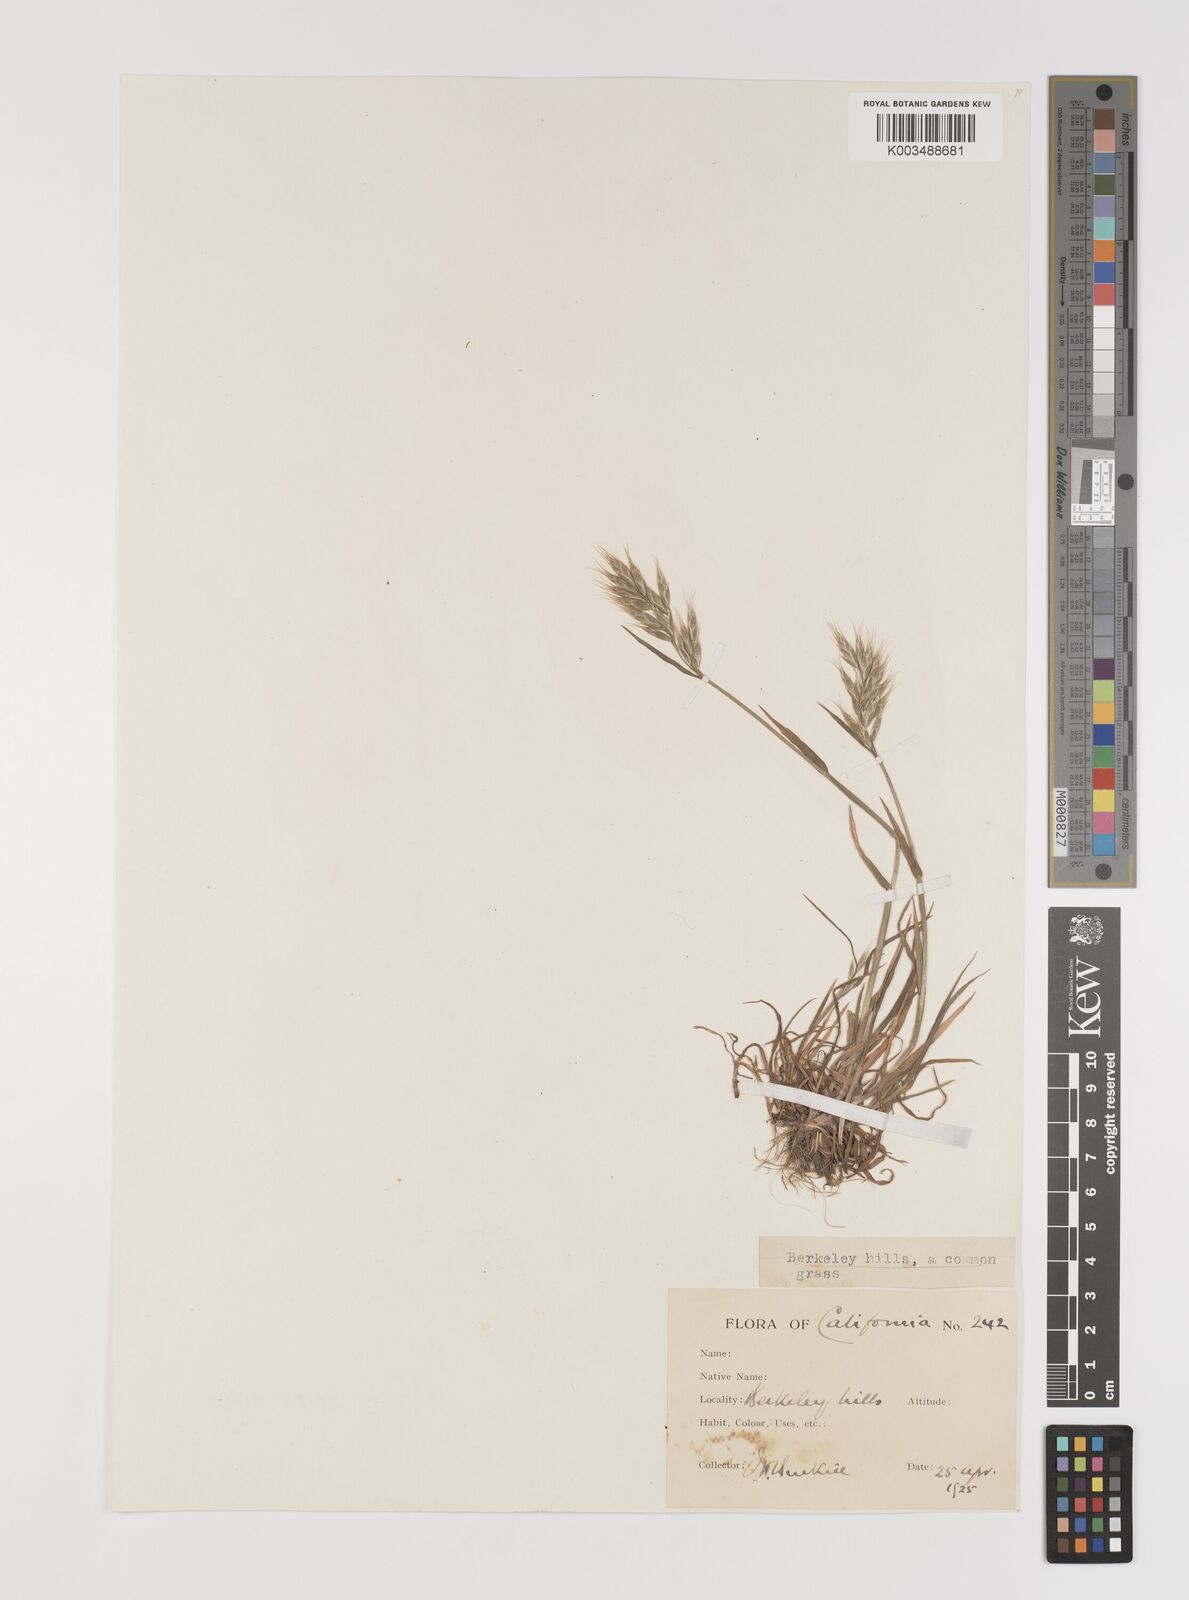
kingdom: Plantae
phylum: Tracheophyta
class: Liliopsida
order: Poales
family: Poaceae
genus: Bromus
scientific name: Bromus hordeaceus
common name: Soft brome
